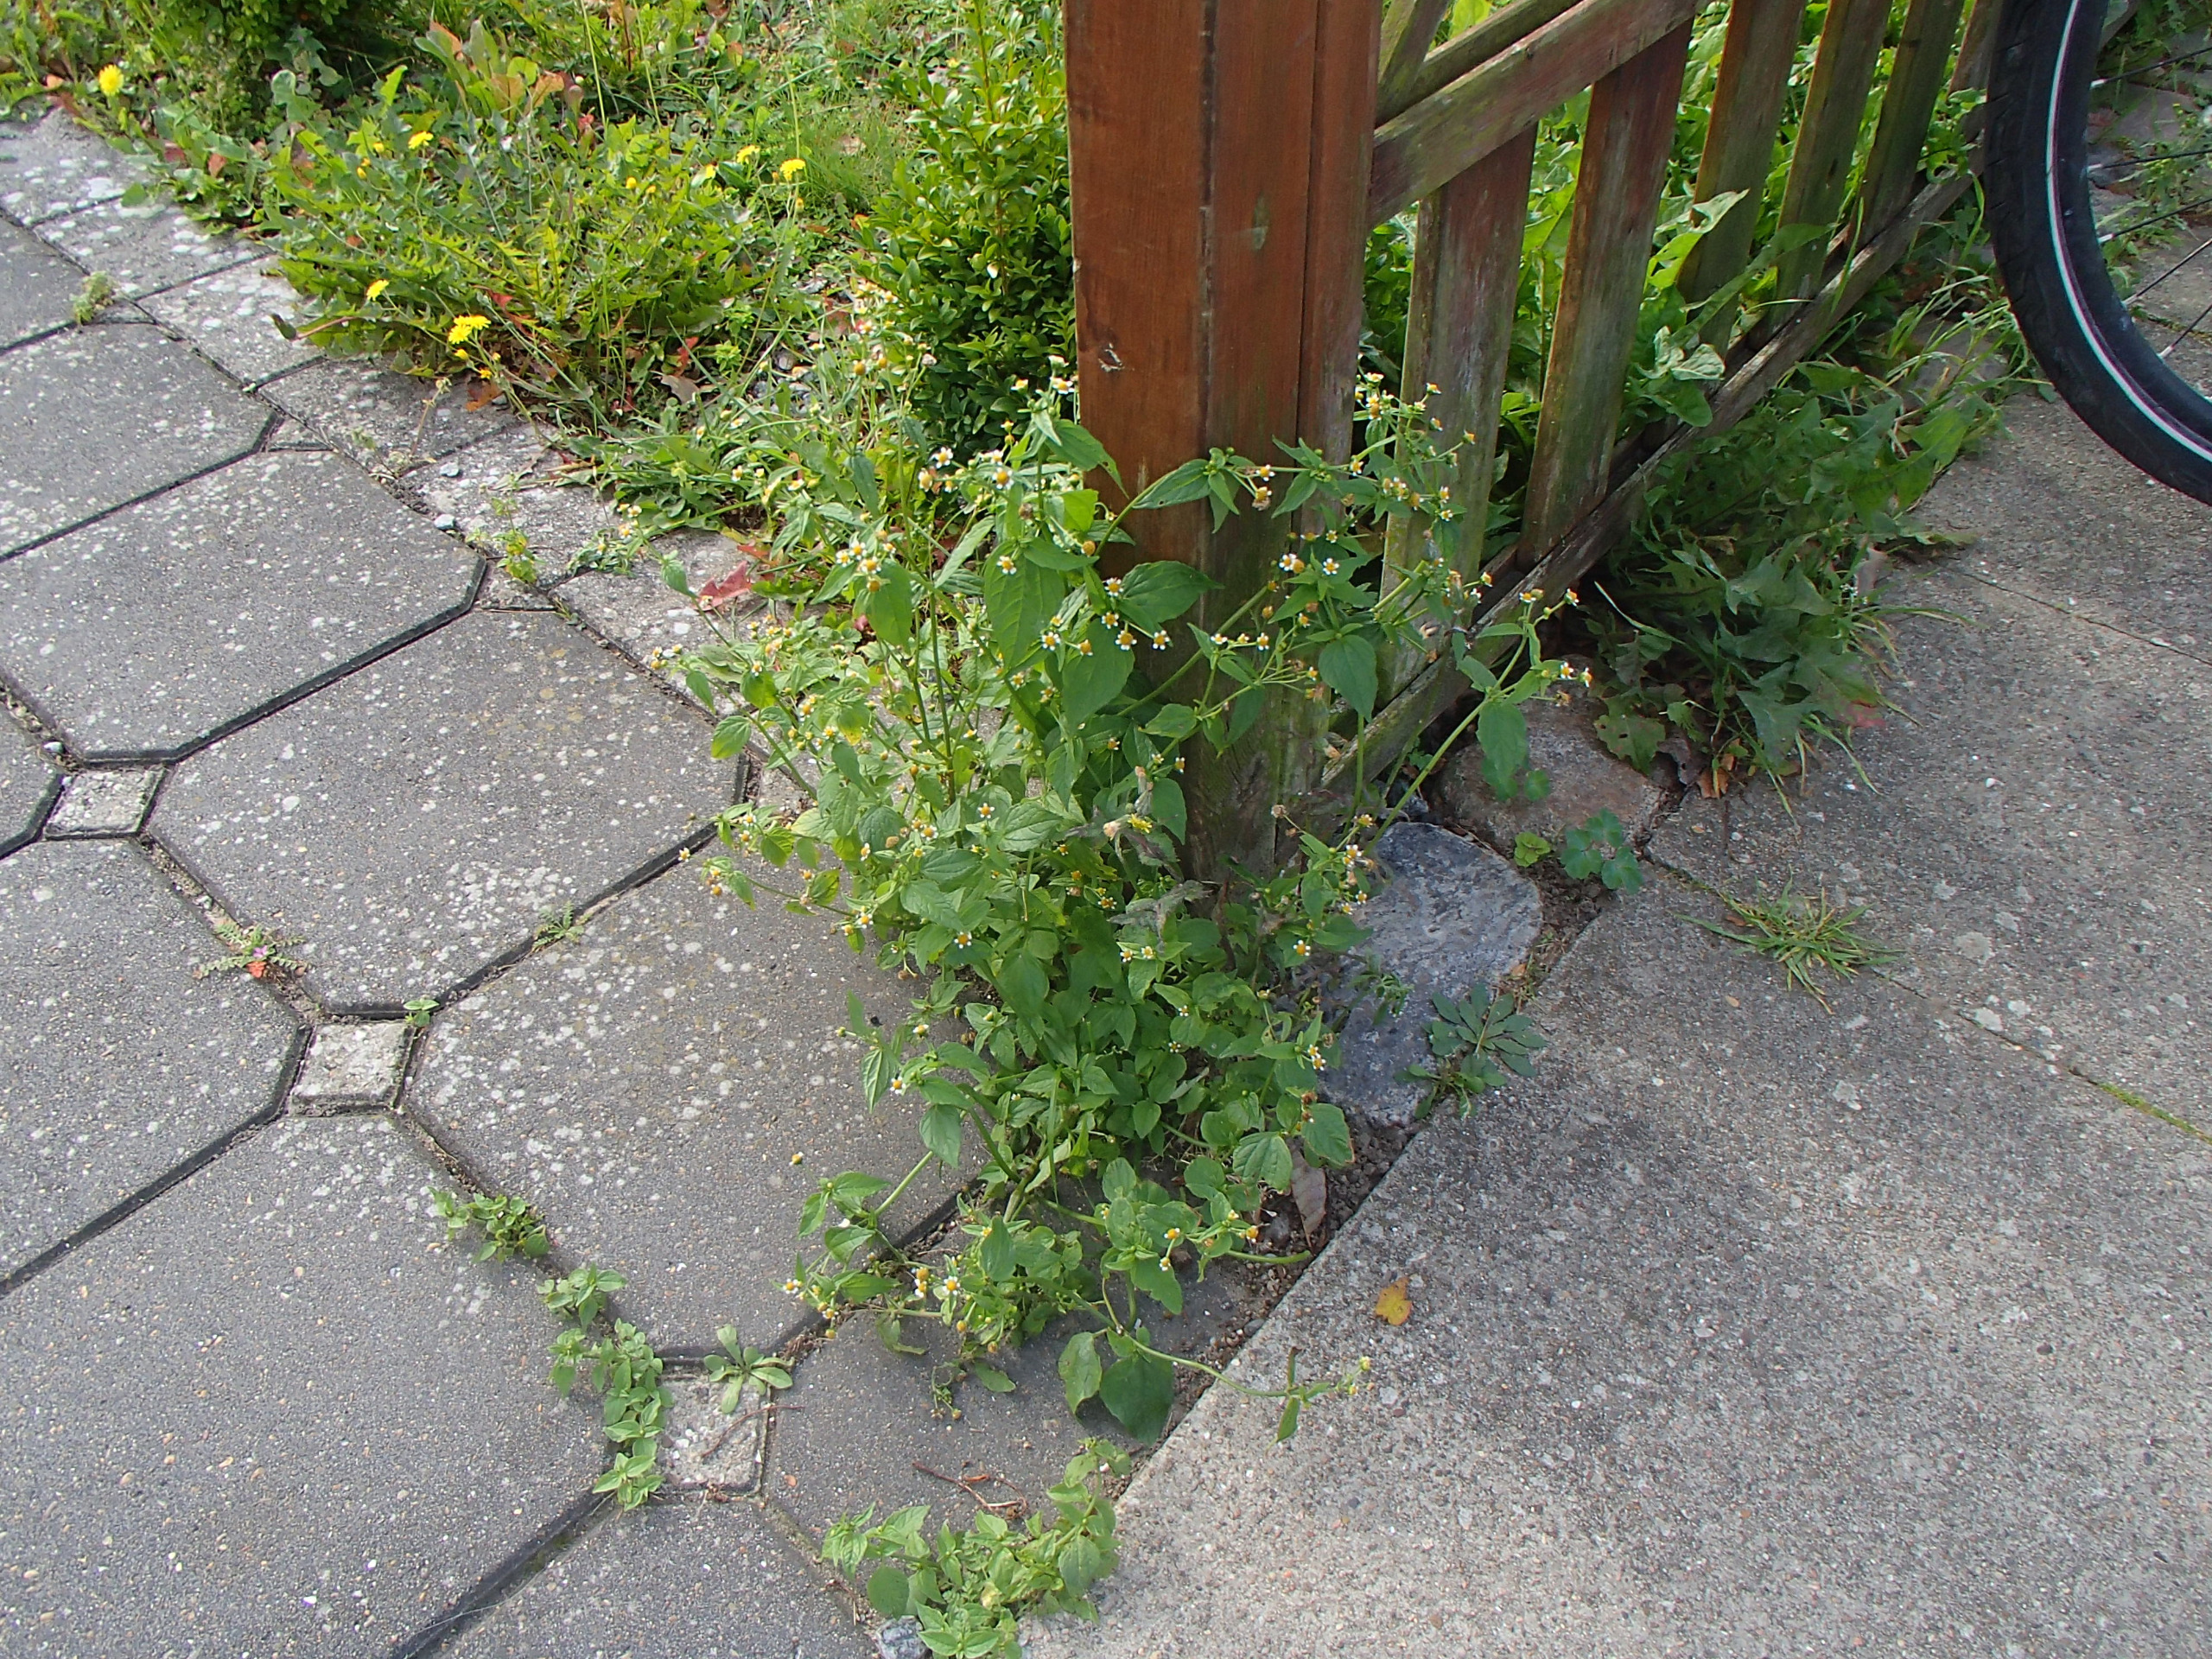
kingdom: Plantae
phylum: Tracheophyta
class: Magnoliopsida
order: Asterales
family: Asteraceae
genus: Galinsoga
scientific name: Galinsoga parviflora
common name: Håret kortstråle
